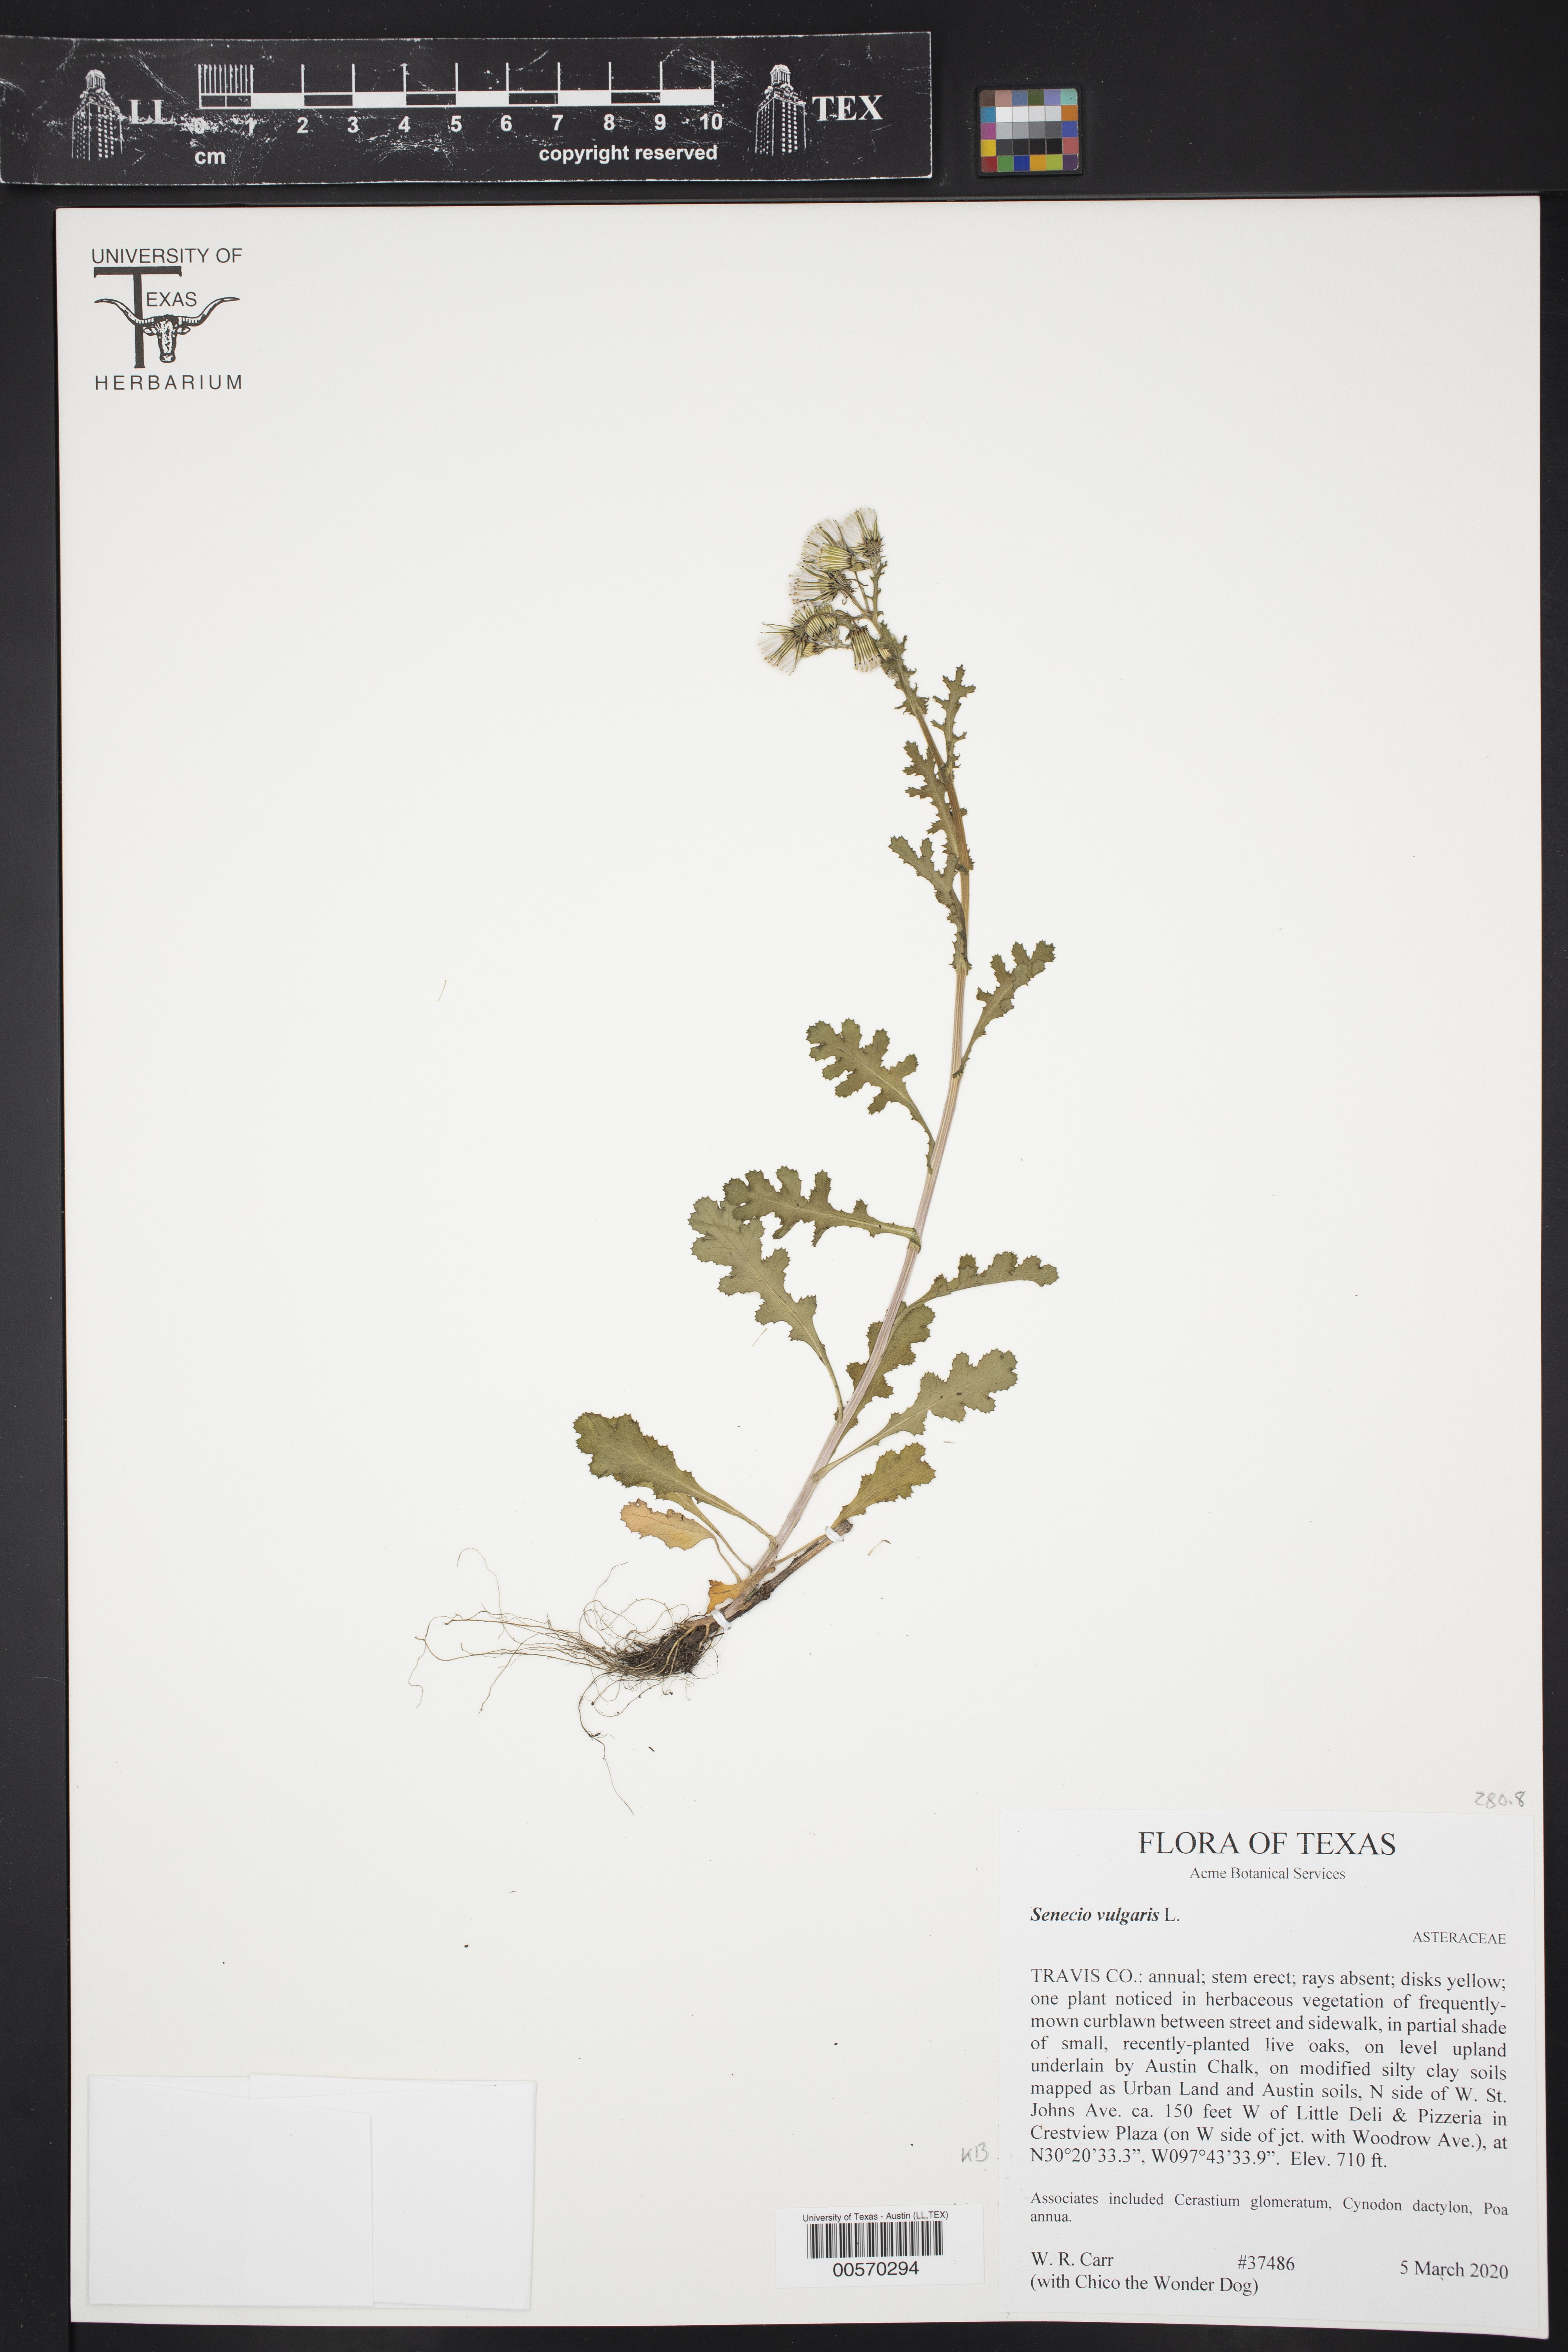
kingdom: Plantae
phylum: Tracheophyta
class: Magnoliopsida
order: Asterales
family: Asteraceae
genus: Senecio
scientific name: Senecio vulgaris
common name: Old-man-in-the-spring
